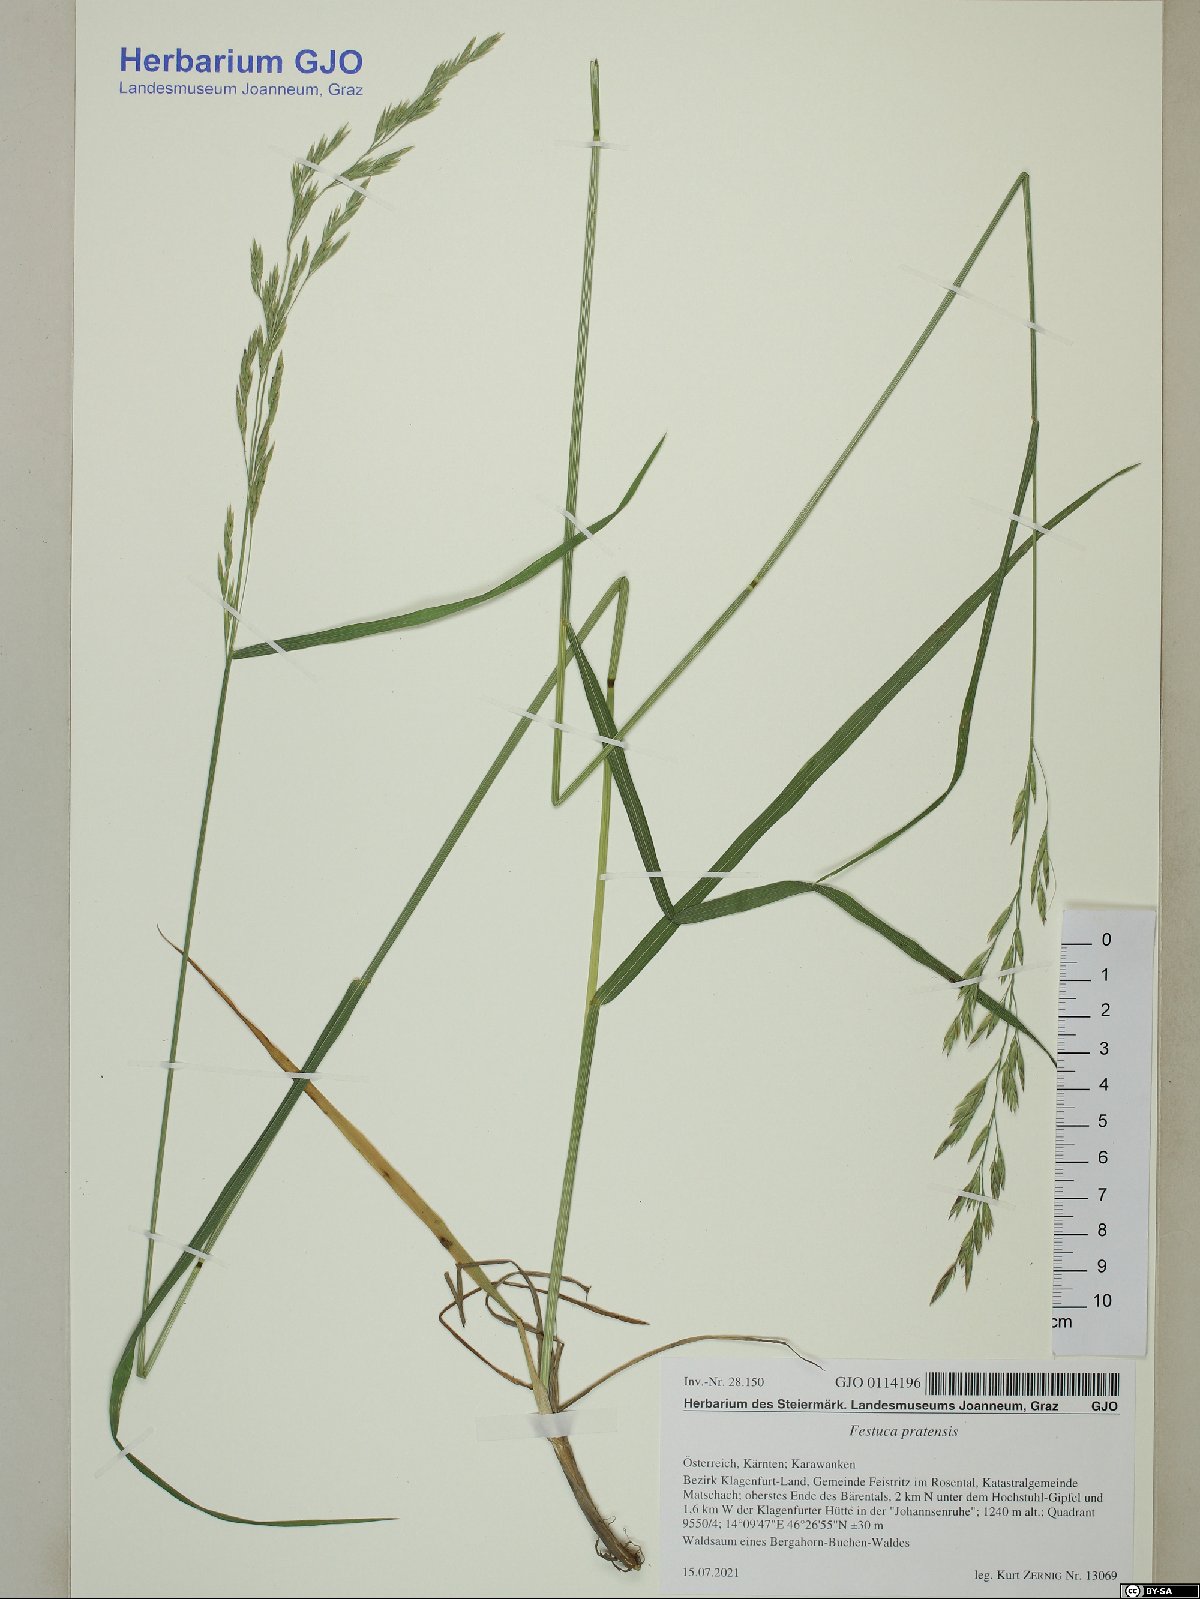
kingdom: Plantae
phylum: Tracheophyta
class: Liliopsida
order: Poales
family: Poaceae
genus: Lolium
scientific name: Lolium pratense
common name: Dover grass
